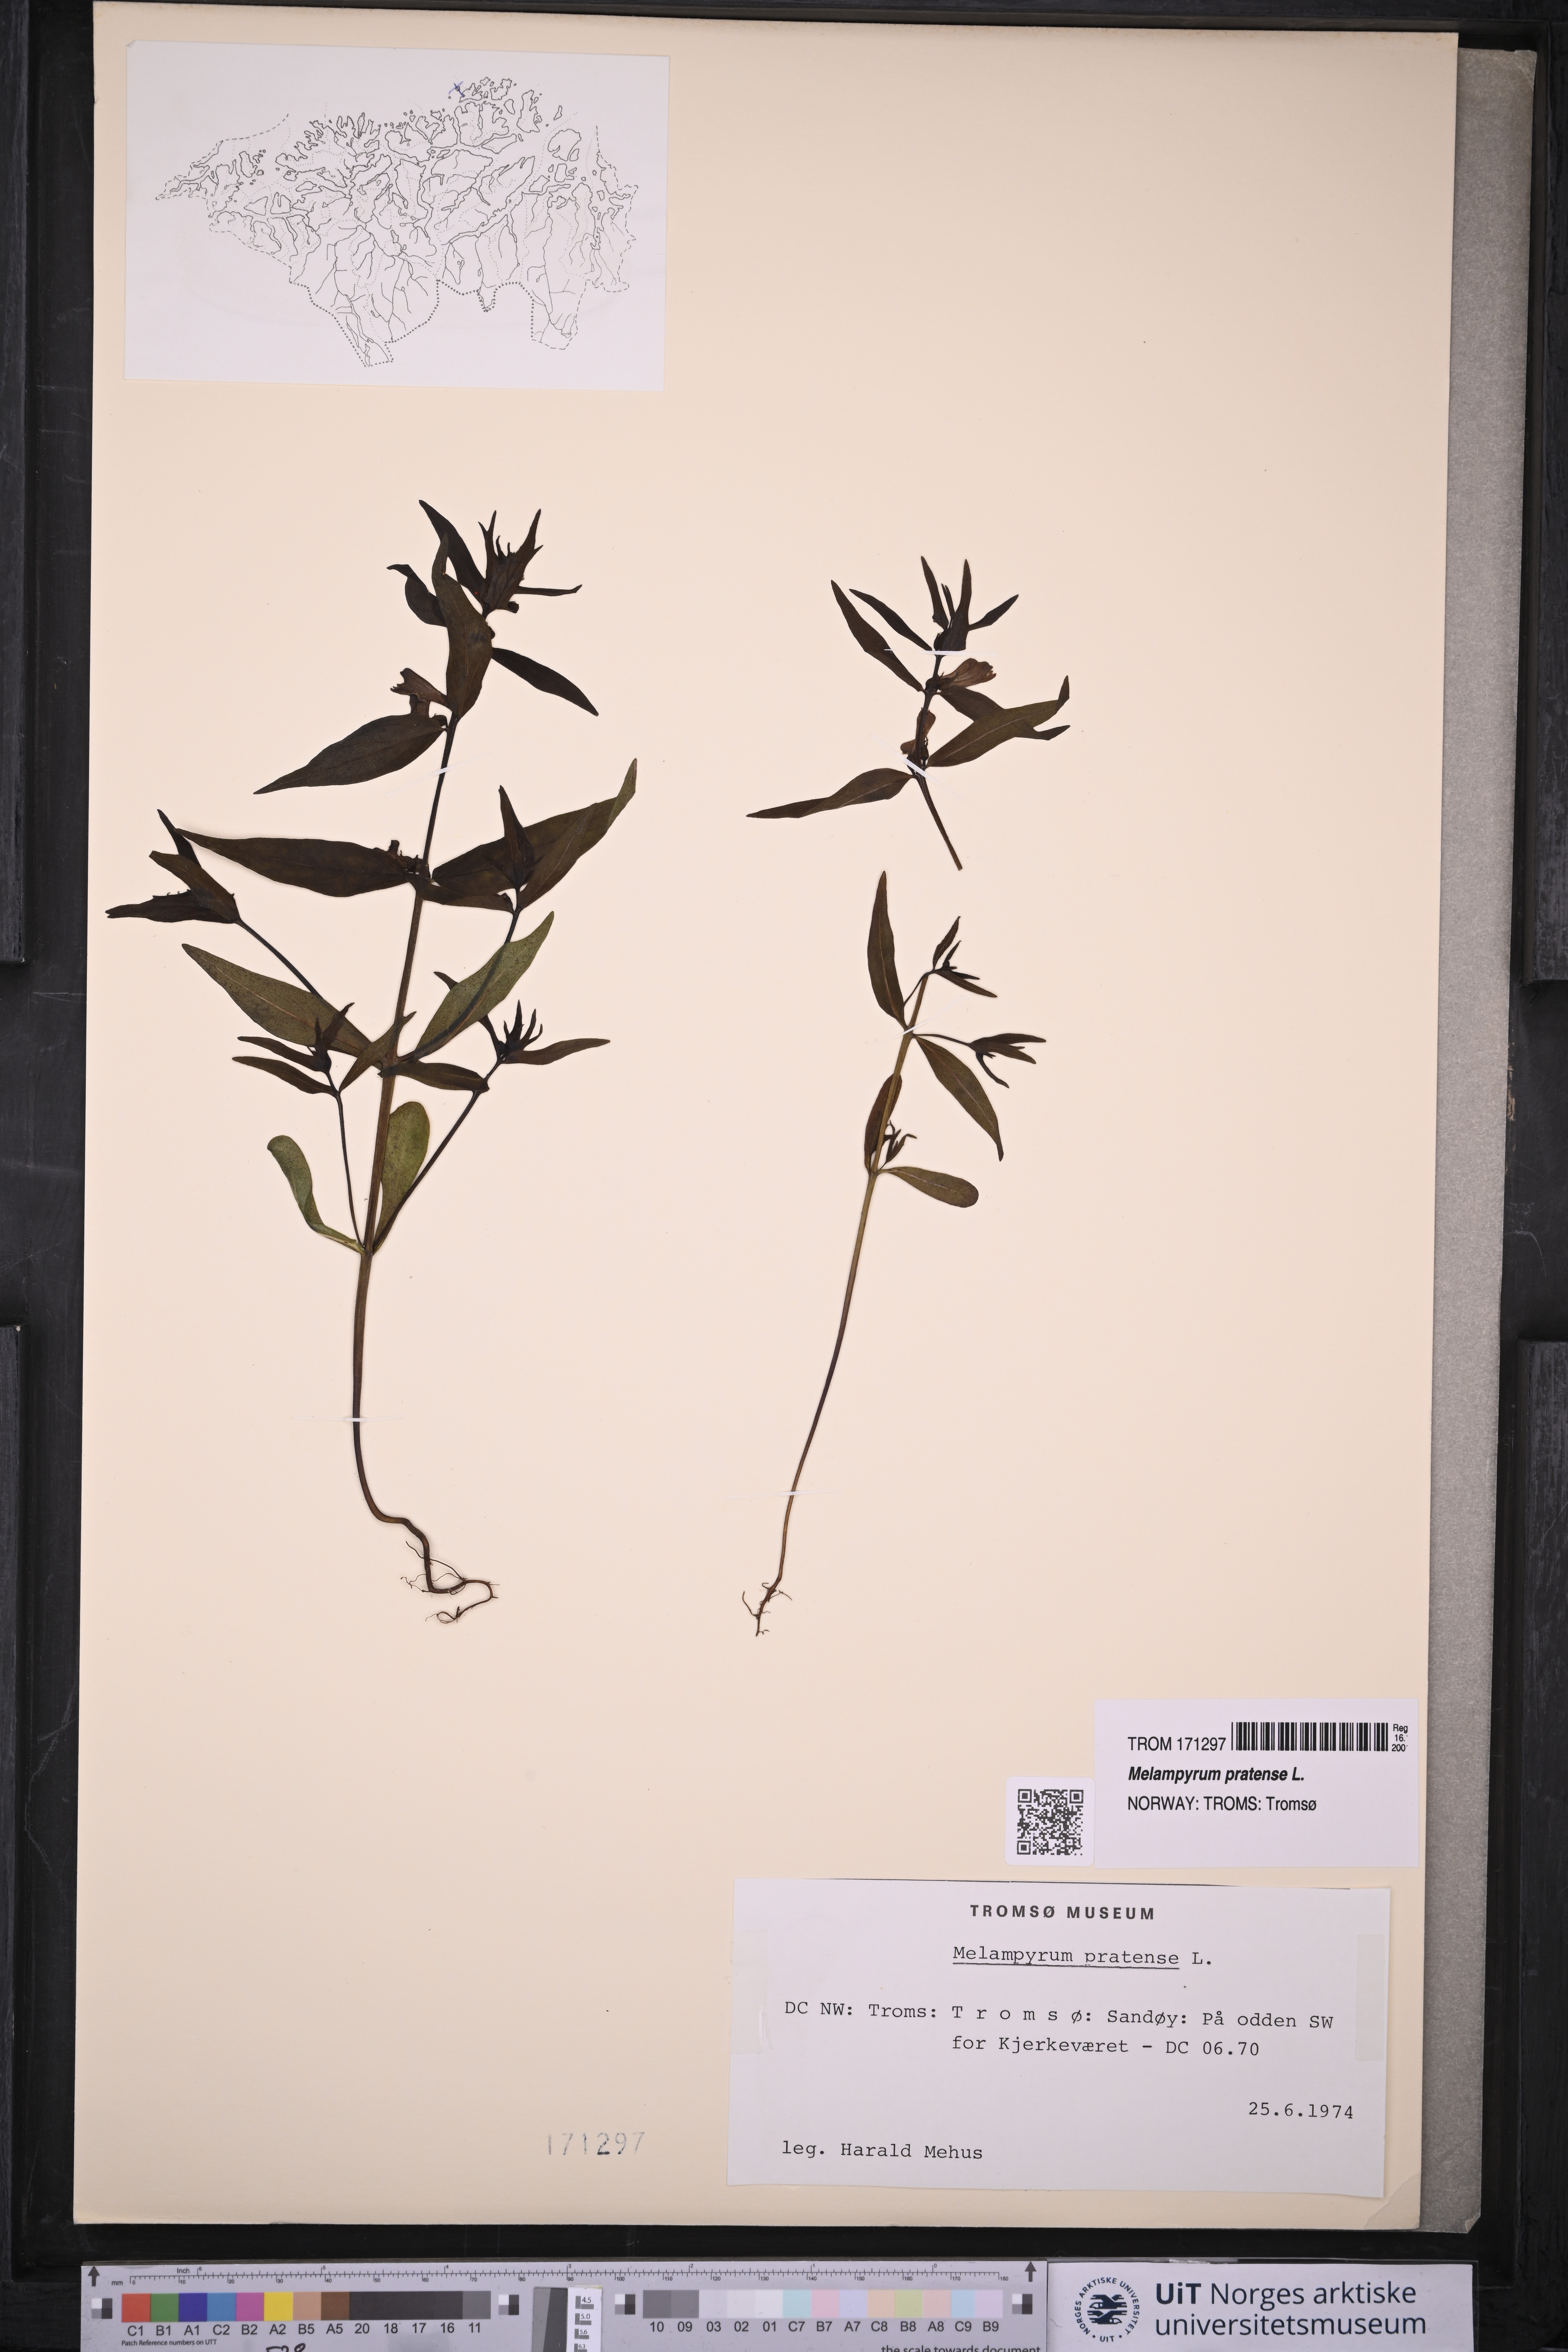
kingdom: Plantae
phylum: Tracheophyta
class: Magnoliopsida
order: Lamiales
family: Orobanchaceae
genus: Melampyrum
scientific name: Melampyrum pratense
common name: Common cow-wheat
